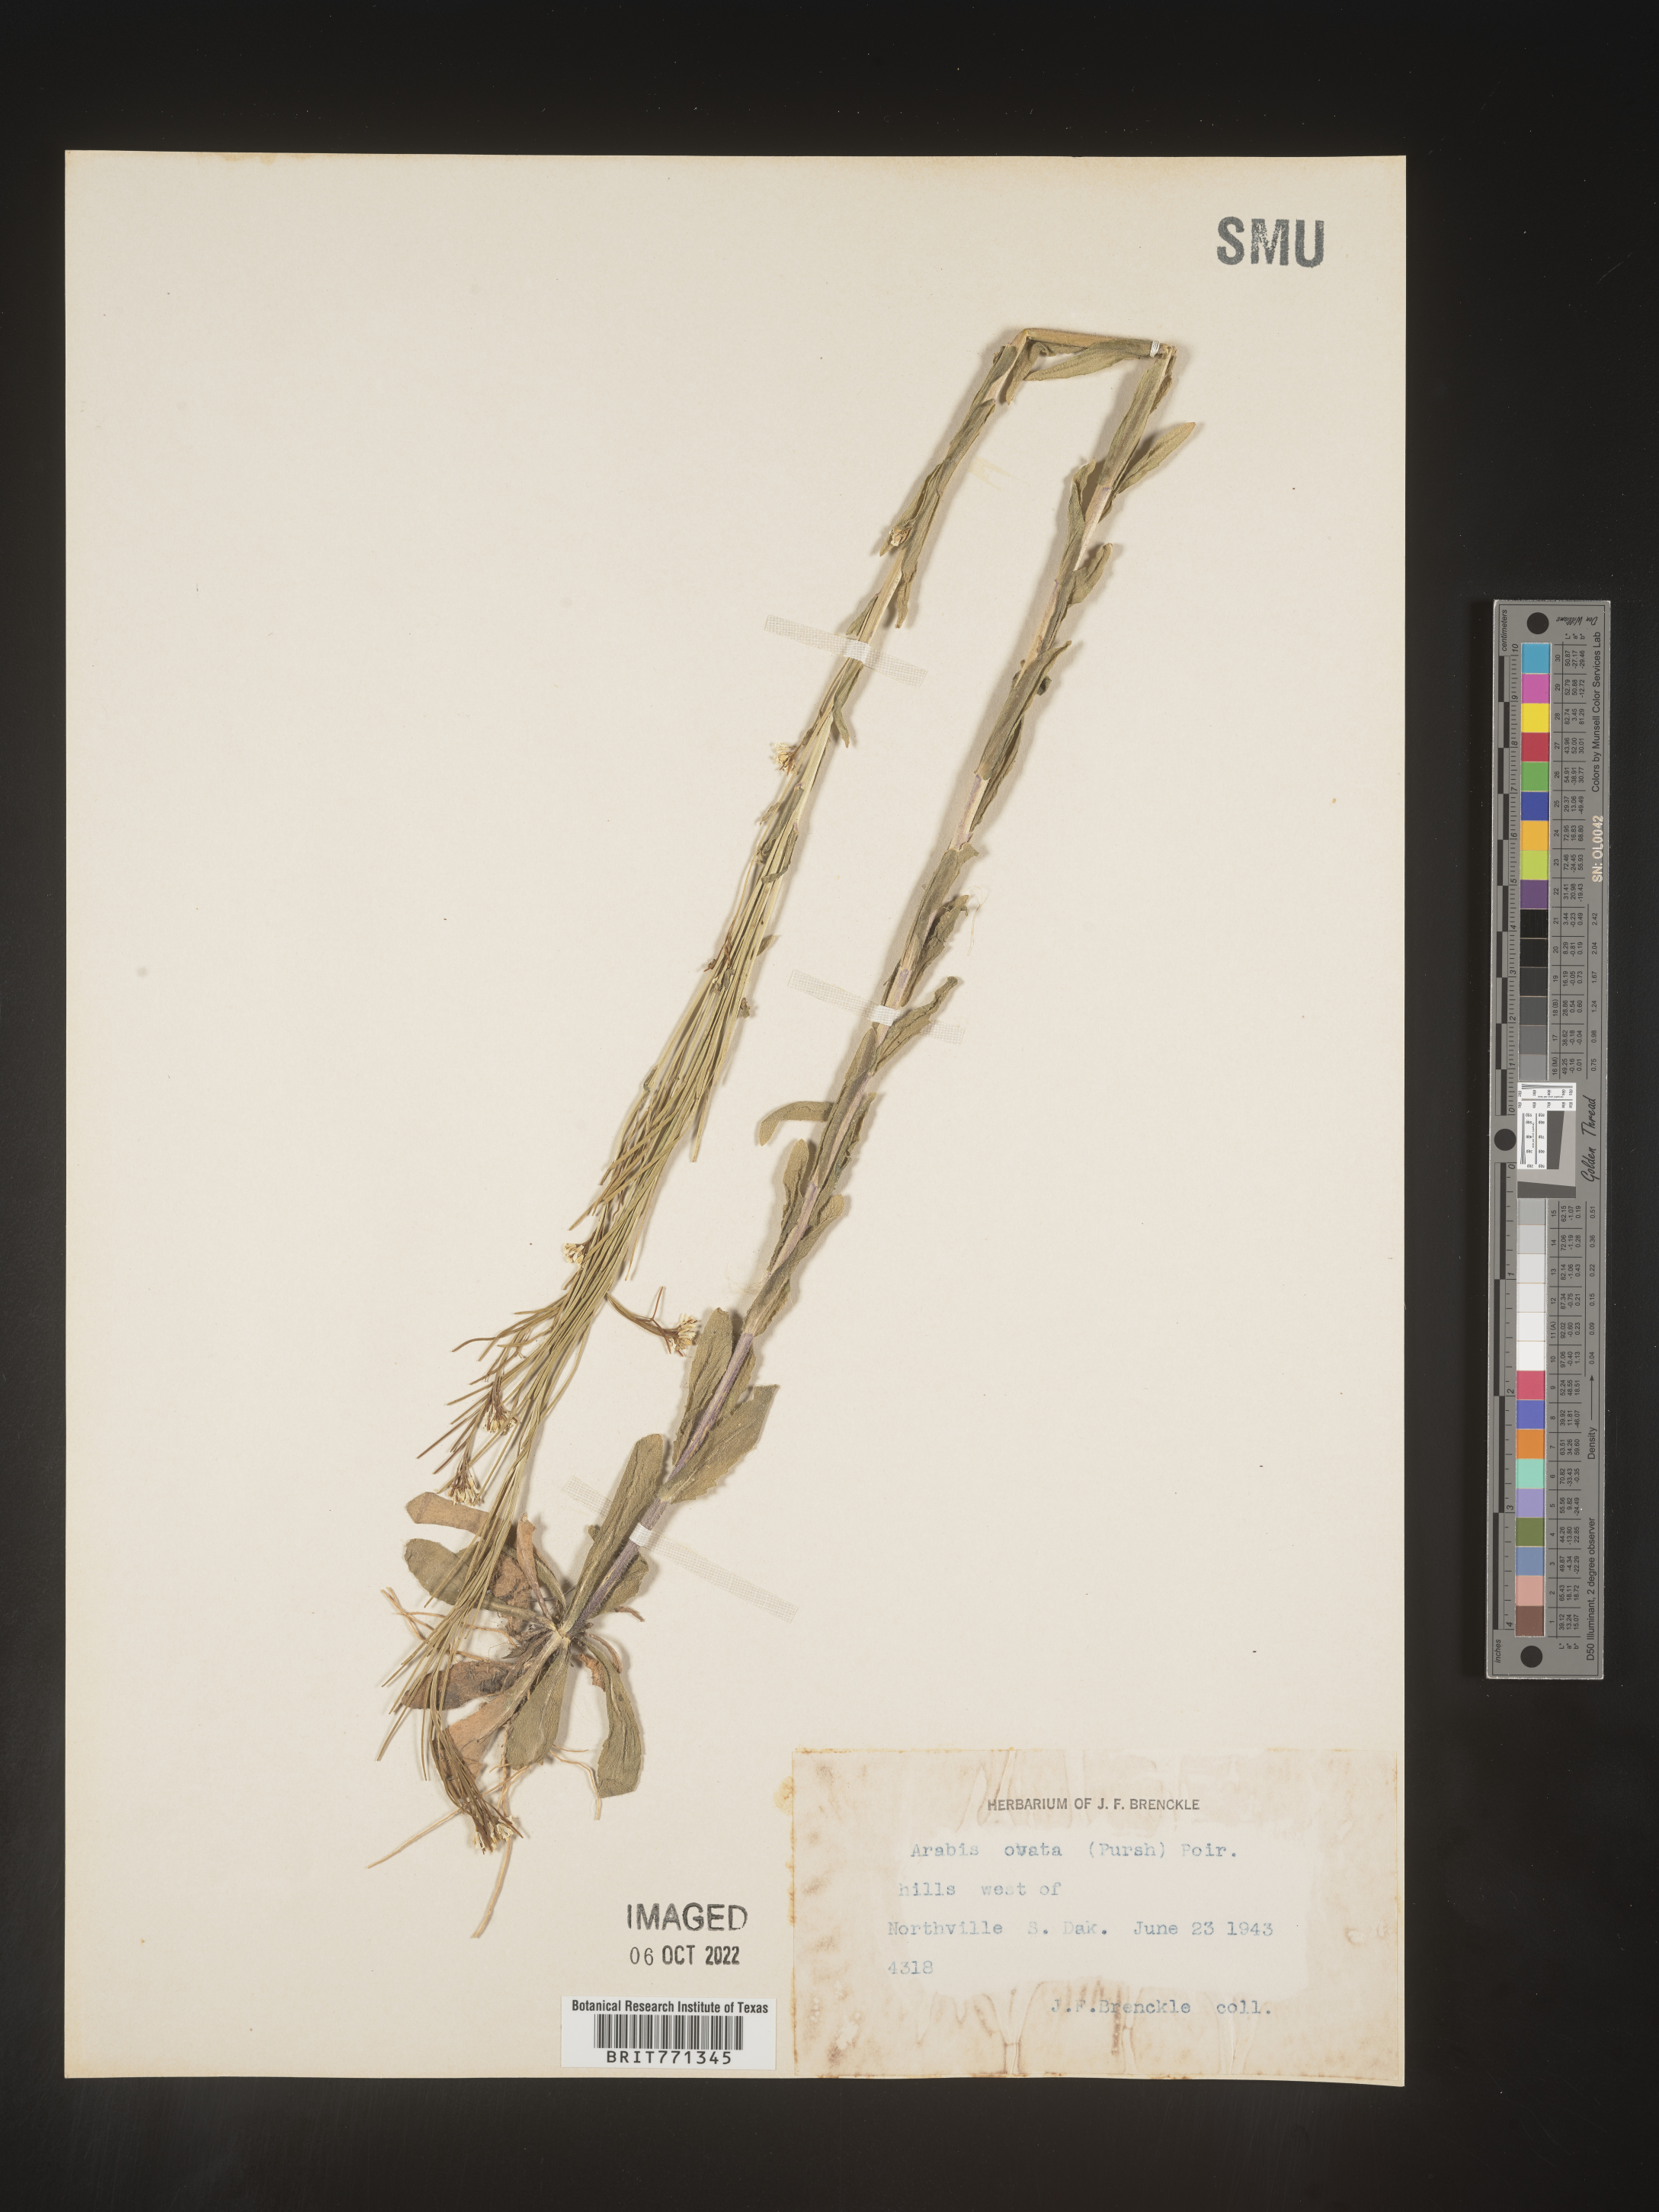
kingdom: Plantae
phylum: Tracheophyta
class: Magnoliopsida
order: Brassicales
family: Brassicaceae
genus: Arabis
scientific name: Arabis
